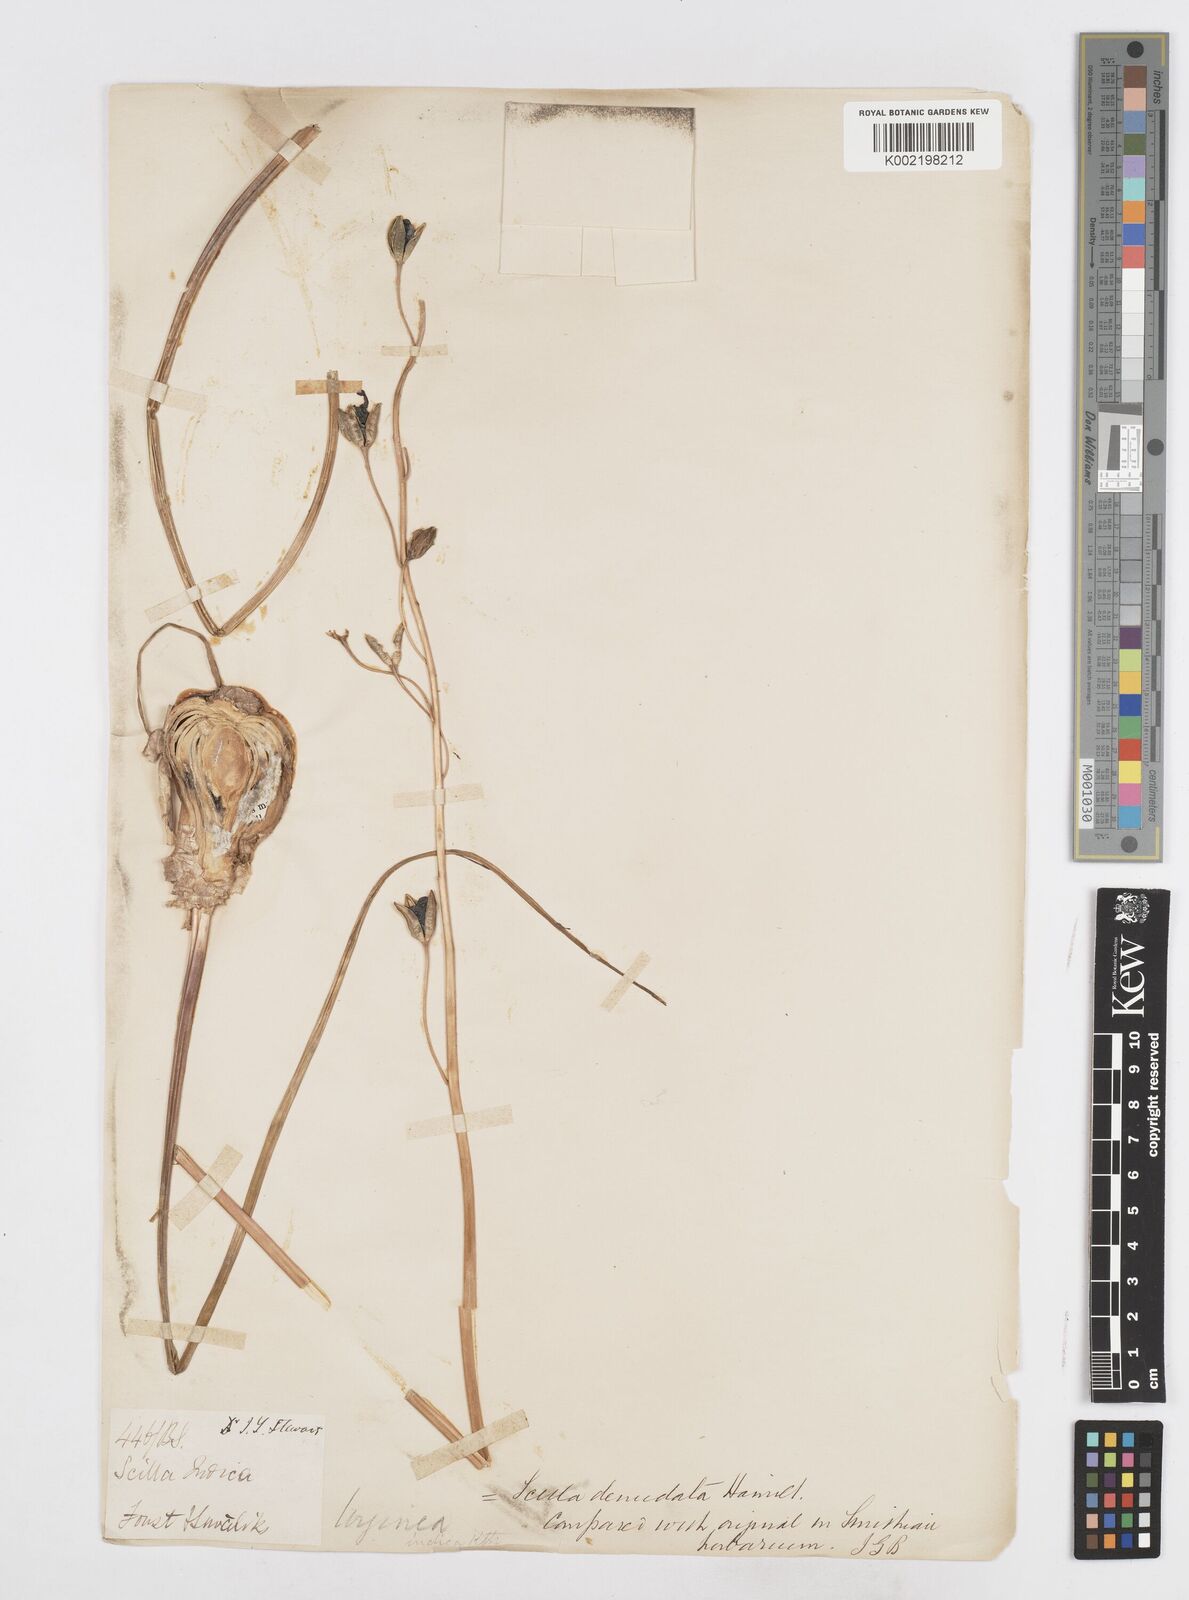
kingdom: Plantae
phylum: Tracheophyta
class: Liliopsida
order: Asparagales
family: Asparagaceae
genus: Drimia
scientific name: Drimia indica
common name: Indian-squill
